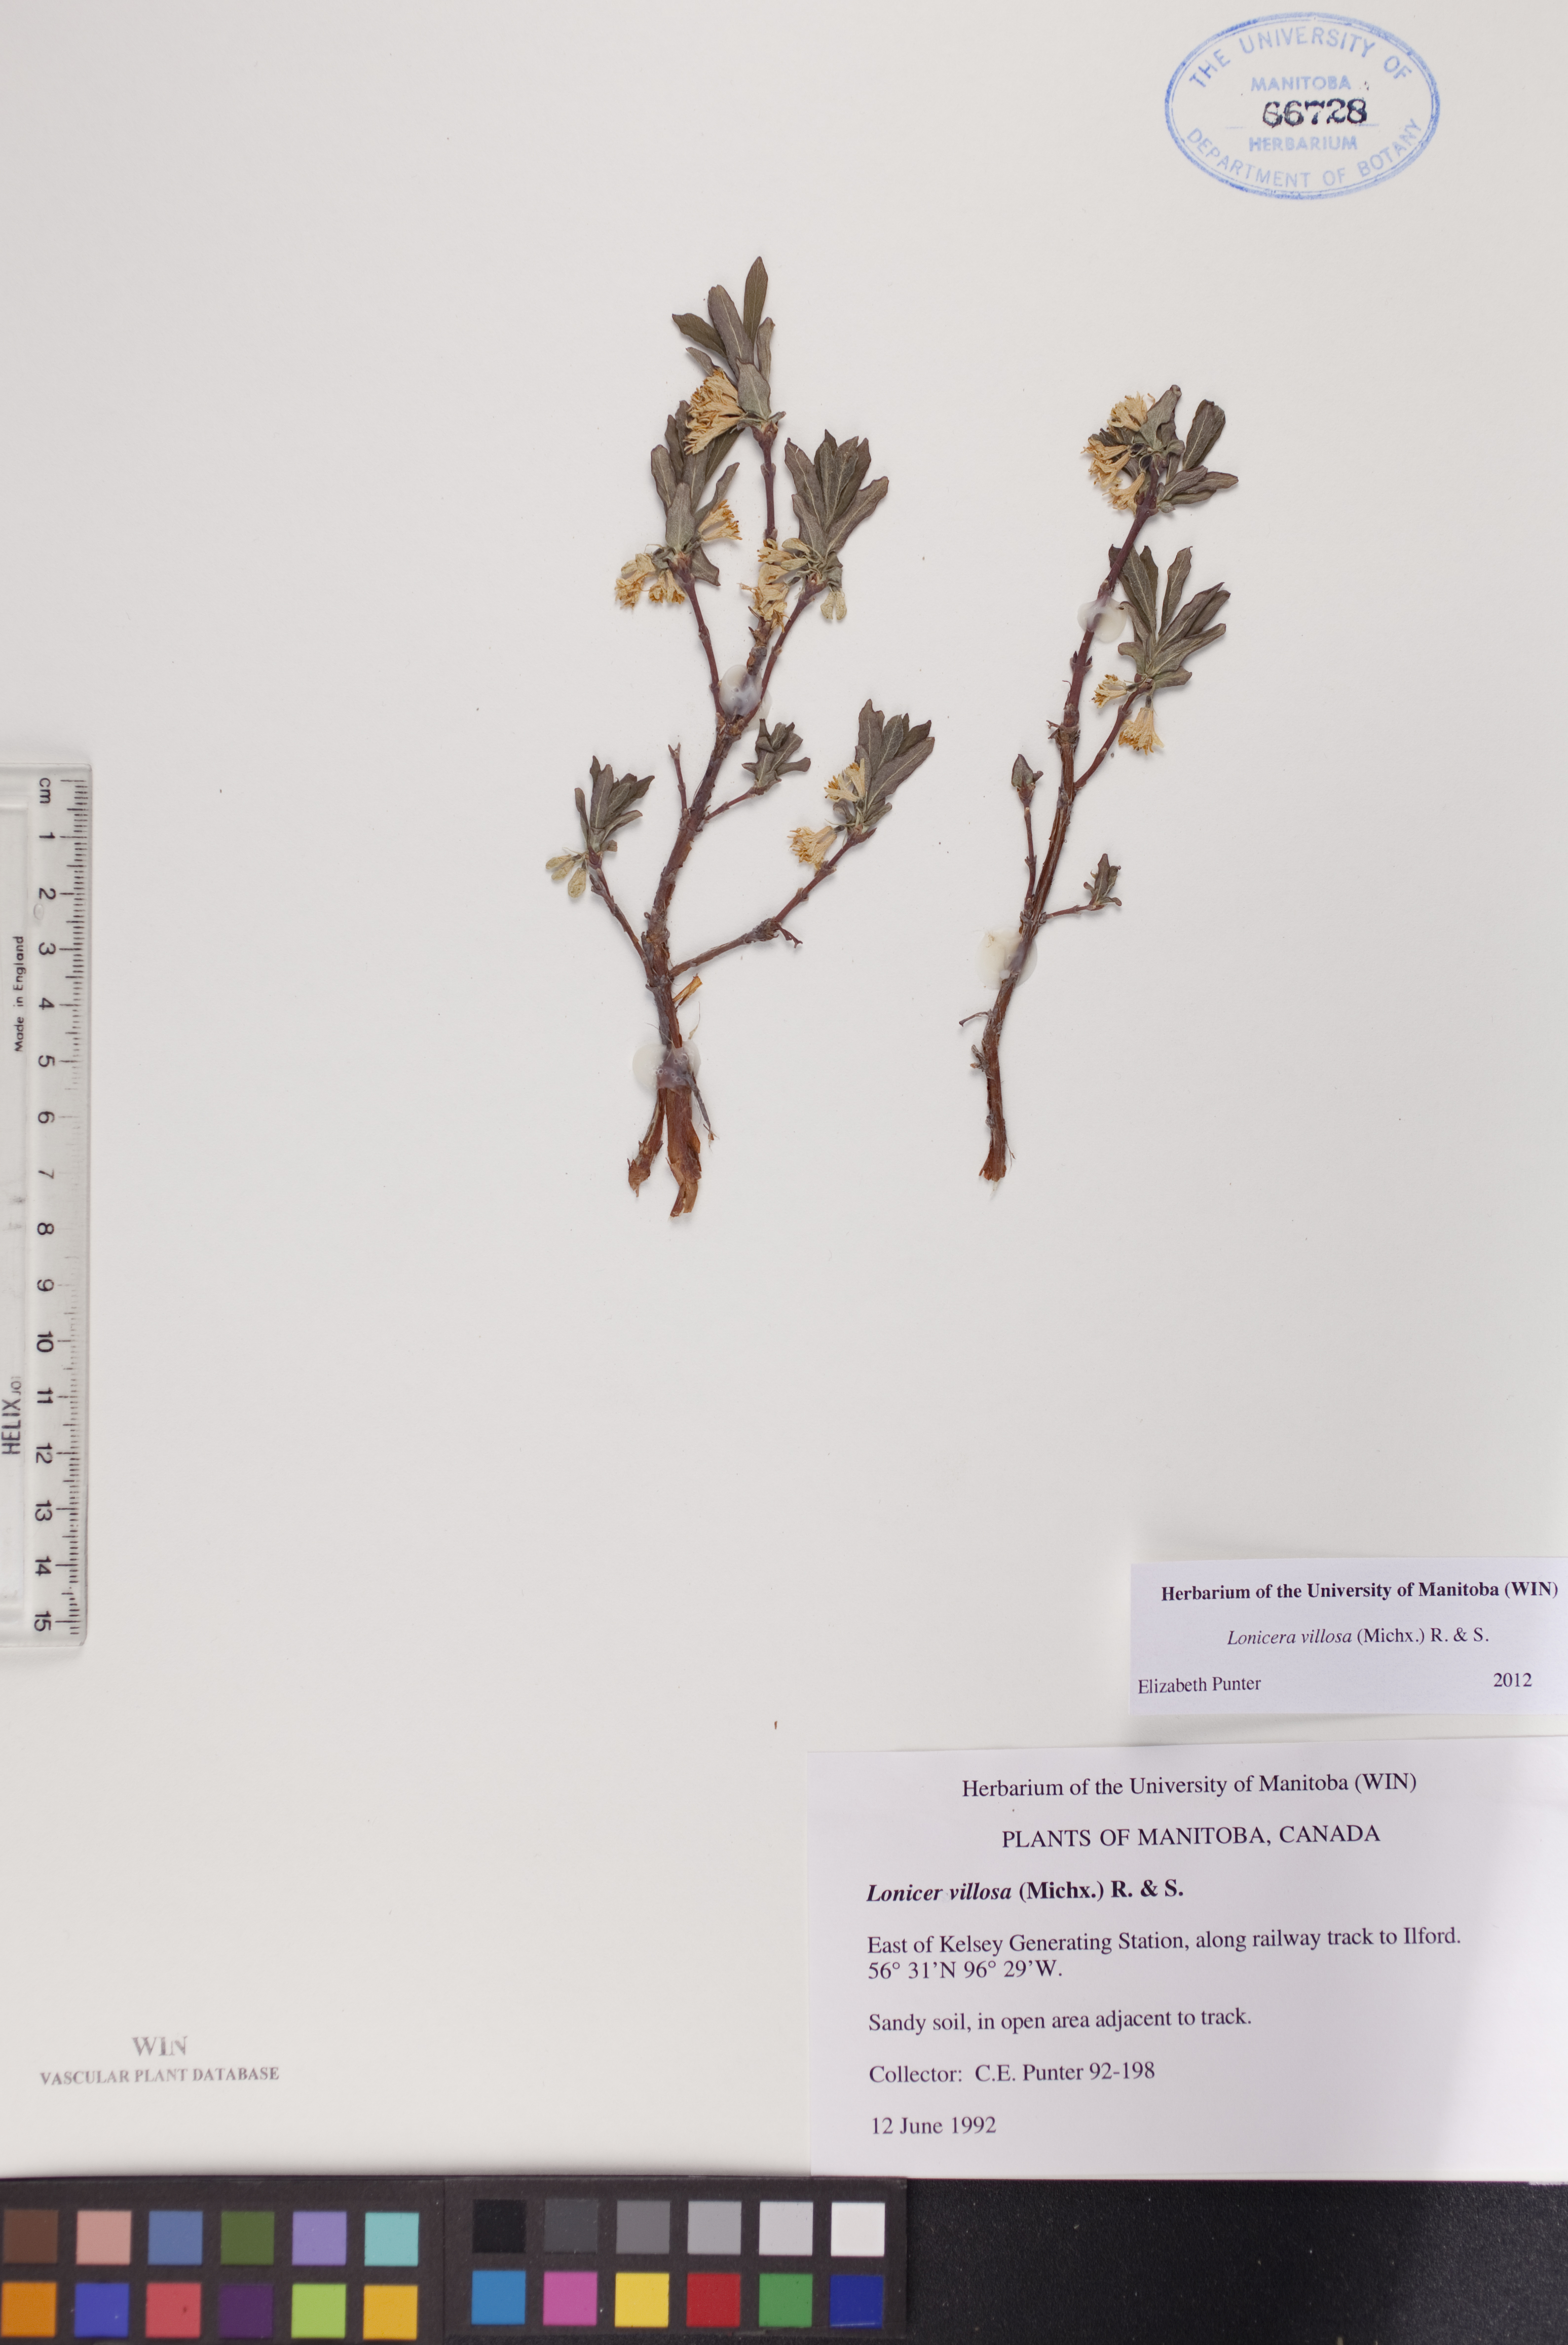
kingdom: Plantae
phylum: Tracheophyta
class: Magnoliopsida
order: Dipsacales
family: Caprifoliaceae
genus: Lonicera
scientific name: Lonicera villosa
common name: Mountain fly-honeysuckle
